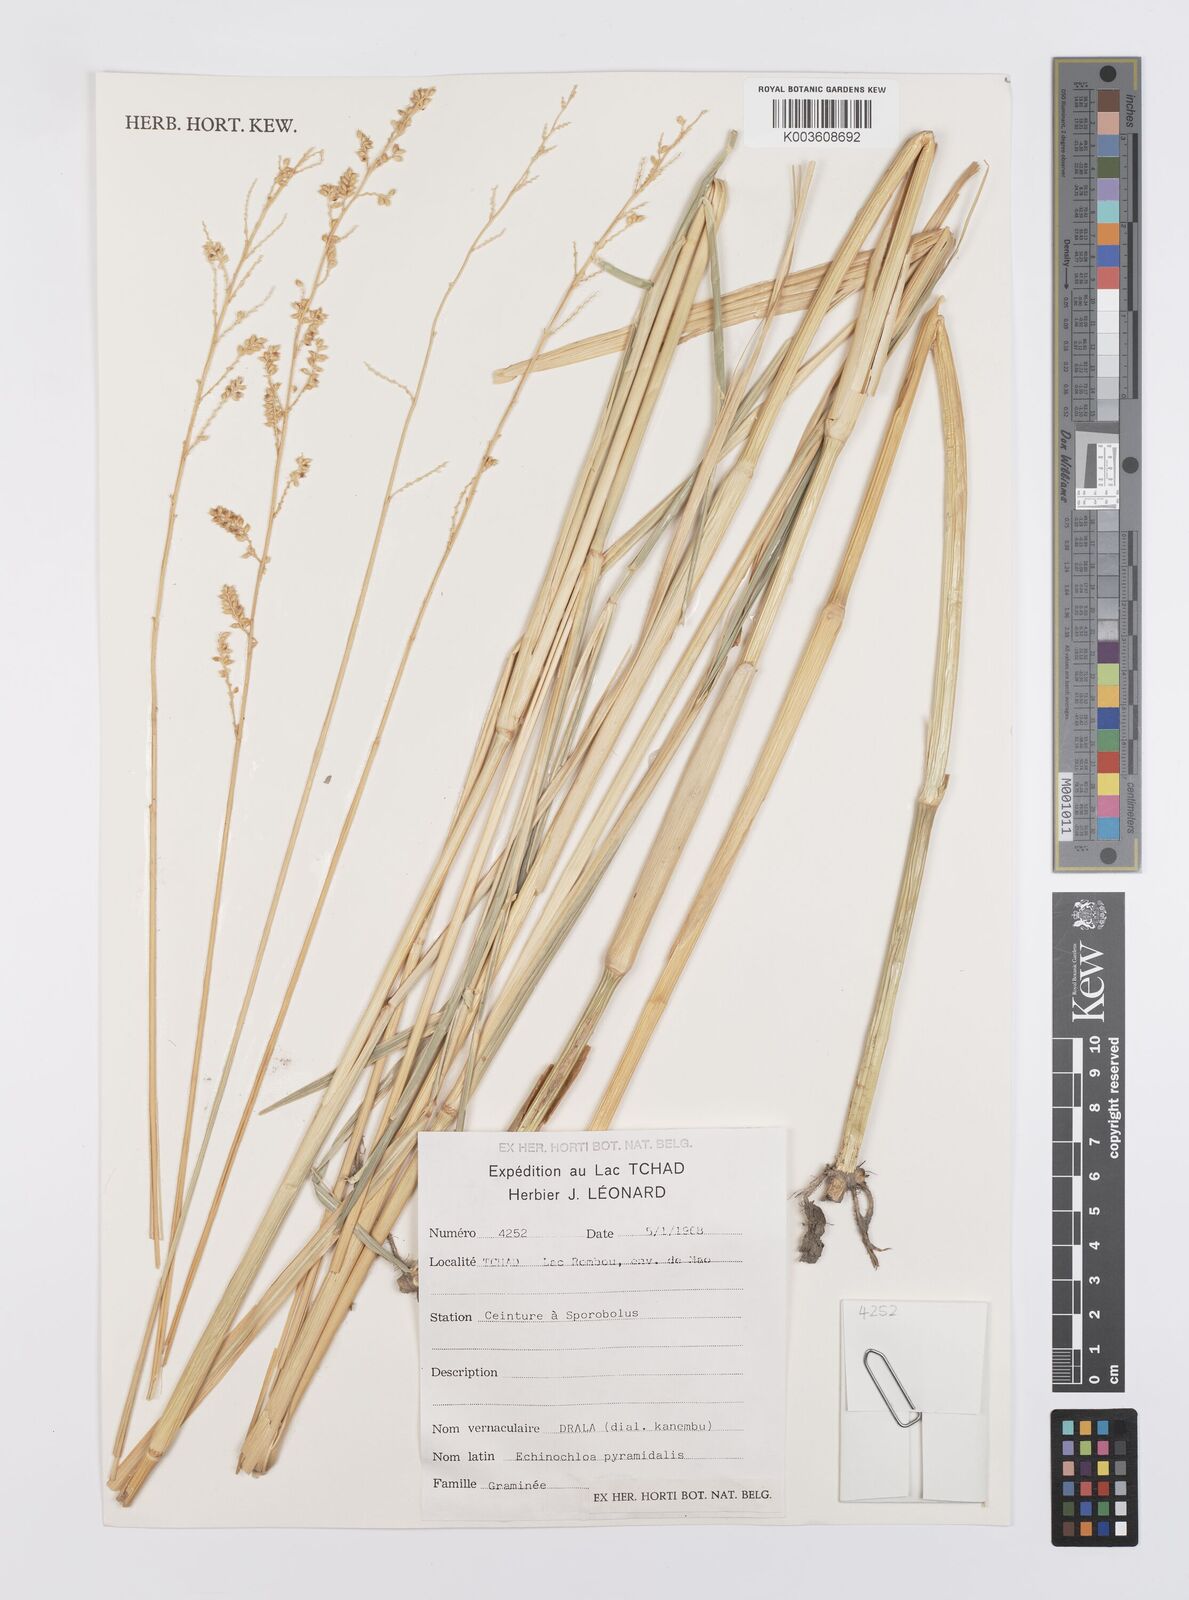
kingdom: Plantae
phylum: Tracheophyta
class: Liliopsida
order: Poales
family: Poaceae
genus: Echinochloa
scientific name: Echinochloa pyramidalis
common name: Antelope grass
